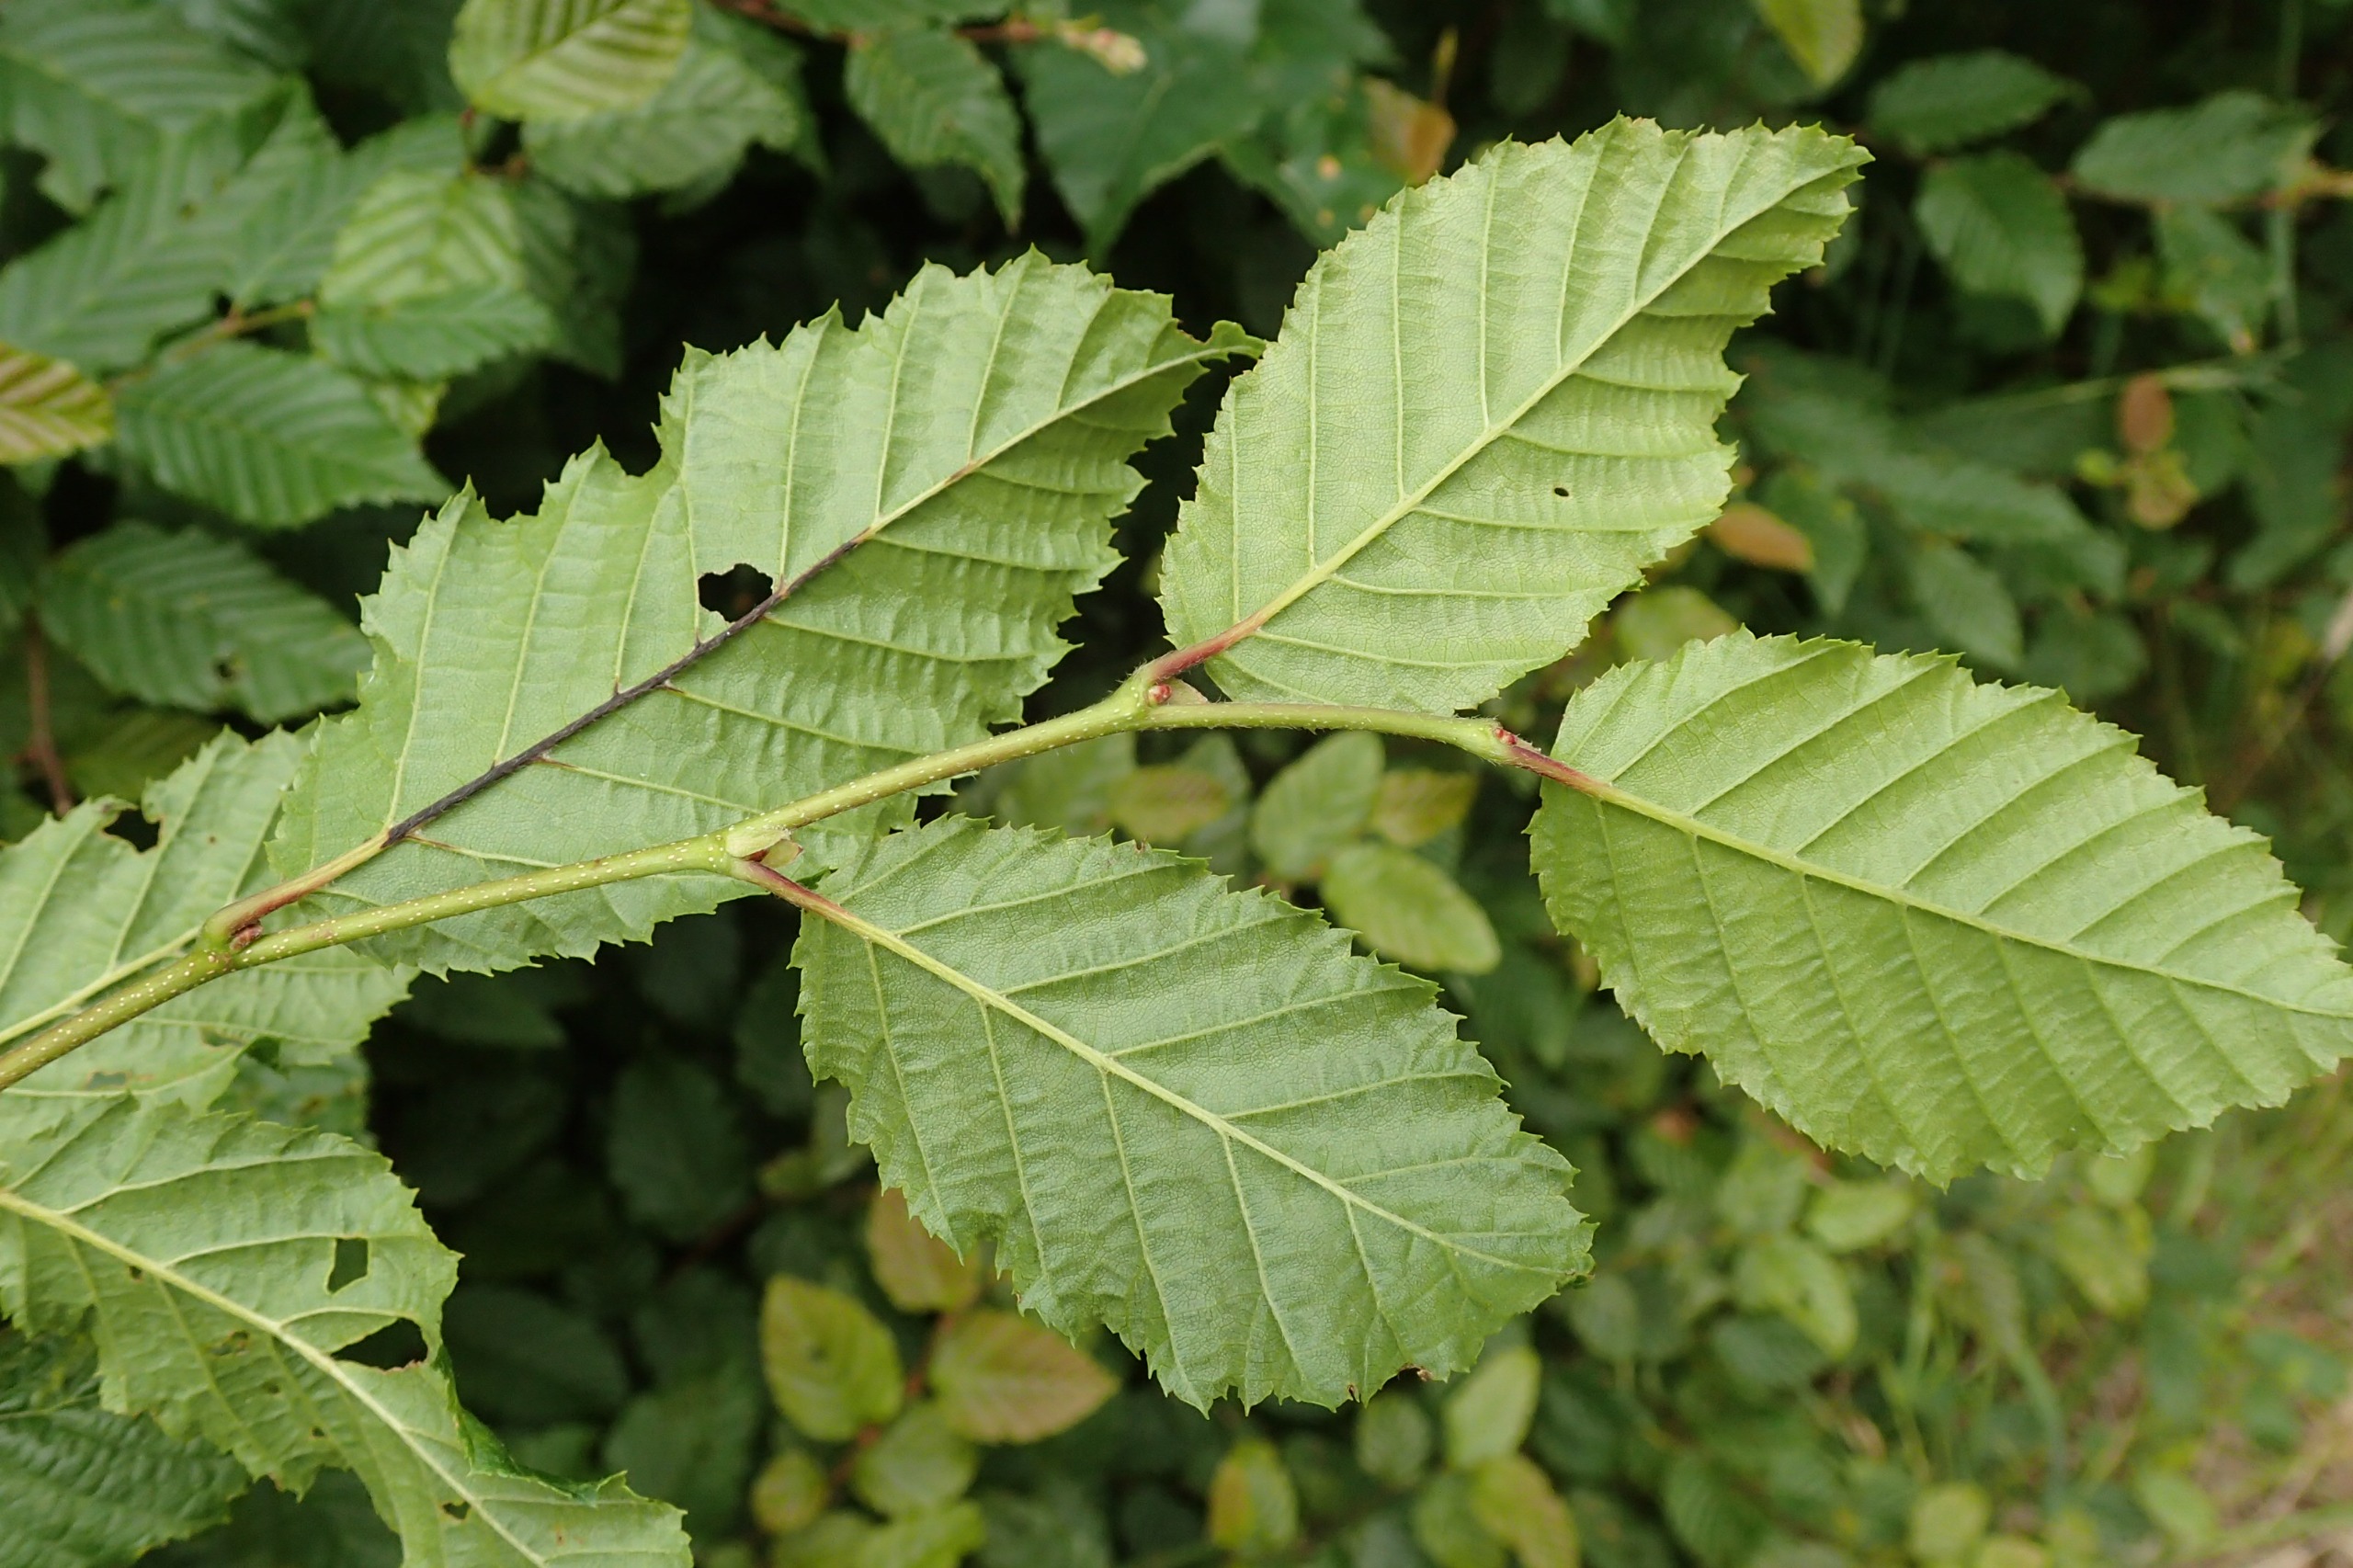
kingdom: Plantae
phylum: Tracheophyta
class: Magnoliopsida
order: Fagales
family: Betulaceae
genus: Carpinus
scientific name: Carpinus betulus
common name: Avnbøg
